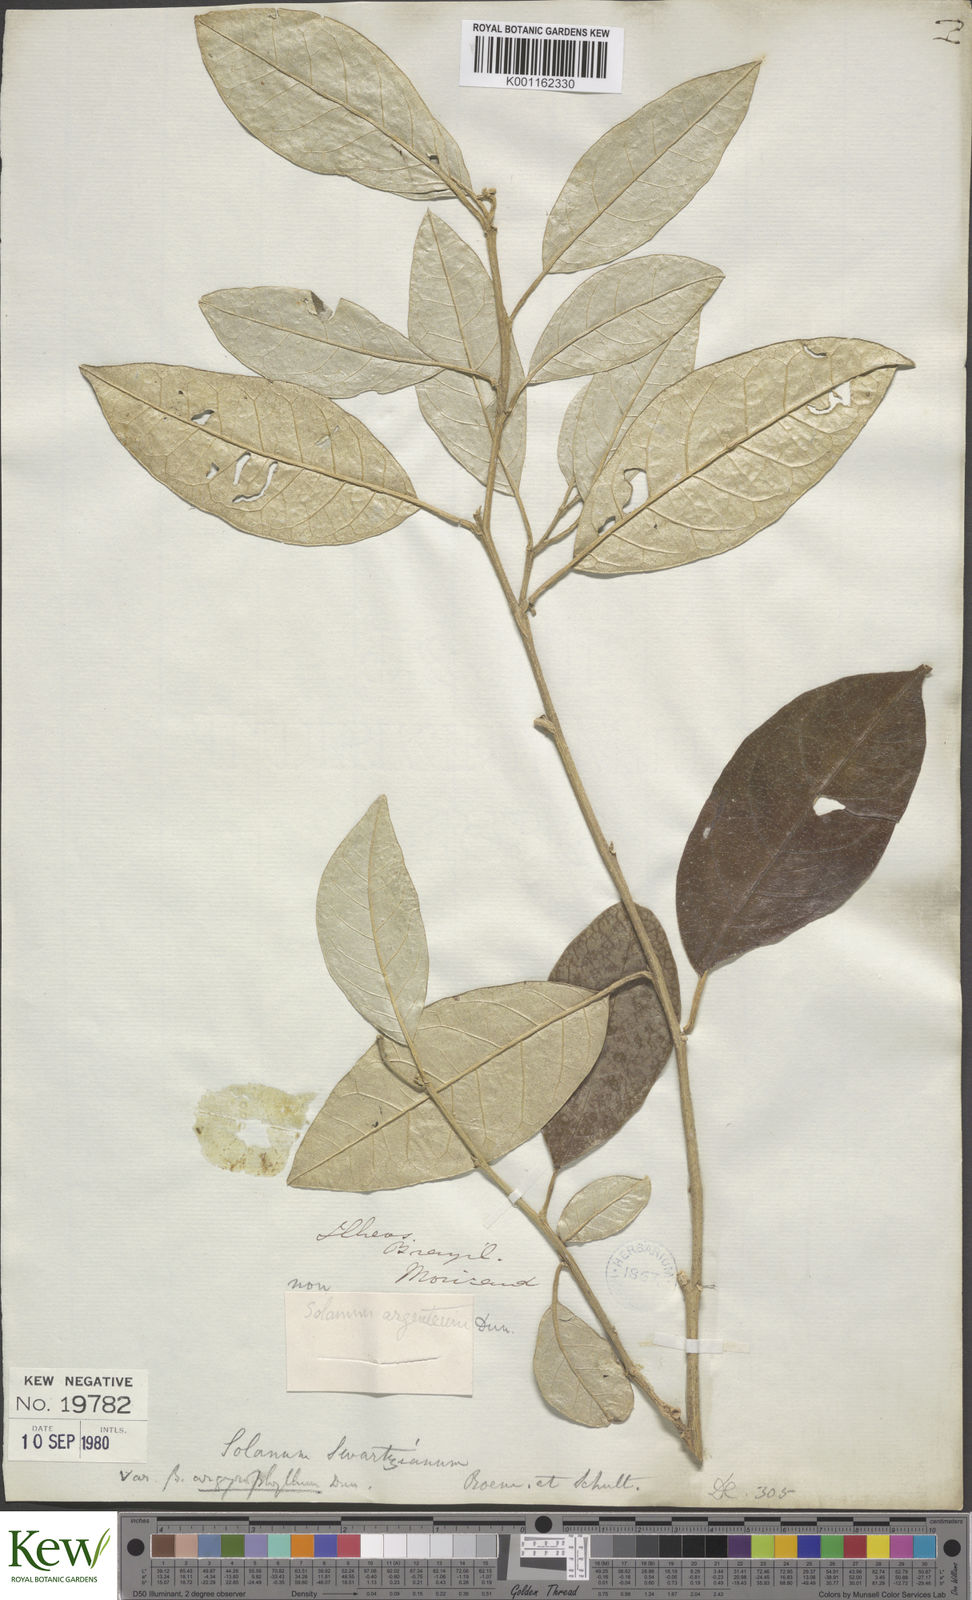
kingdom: Plantae
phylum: Tracheophyta
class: Magnoliopsida
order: Solanales
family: Solanaceae
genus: Solanum
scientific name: Solanum swartzianum
